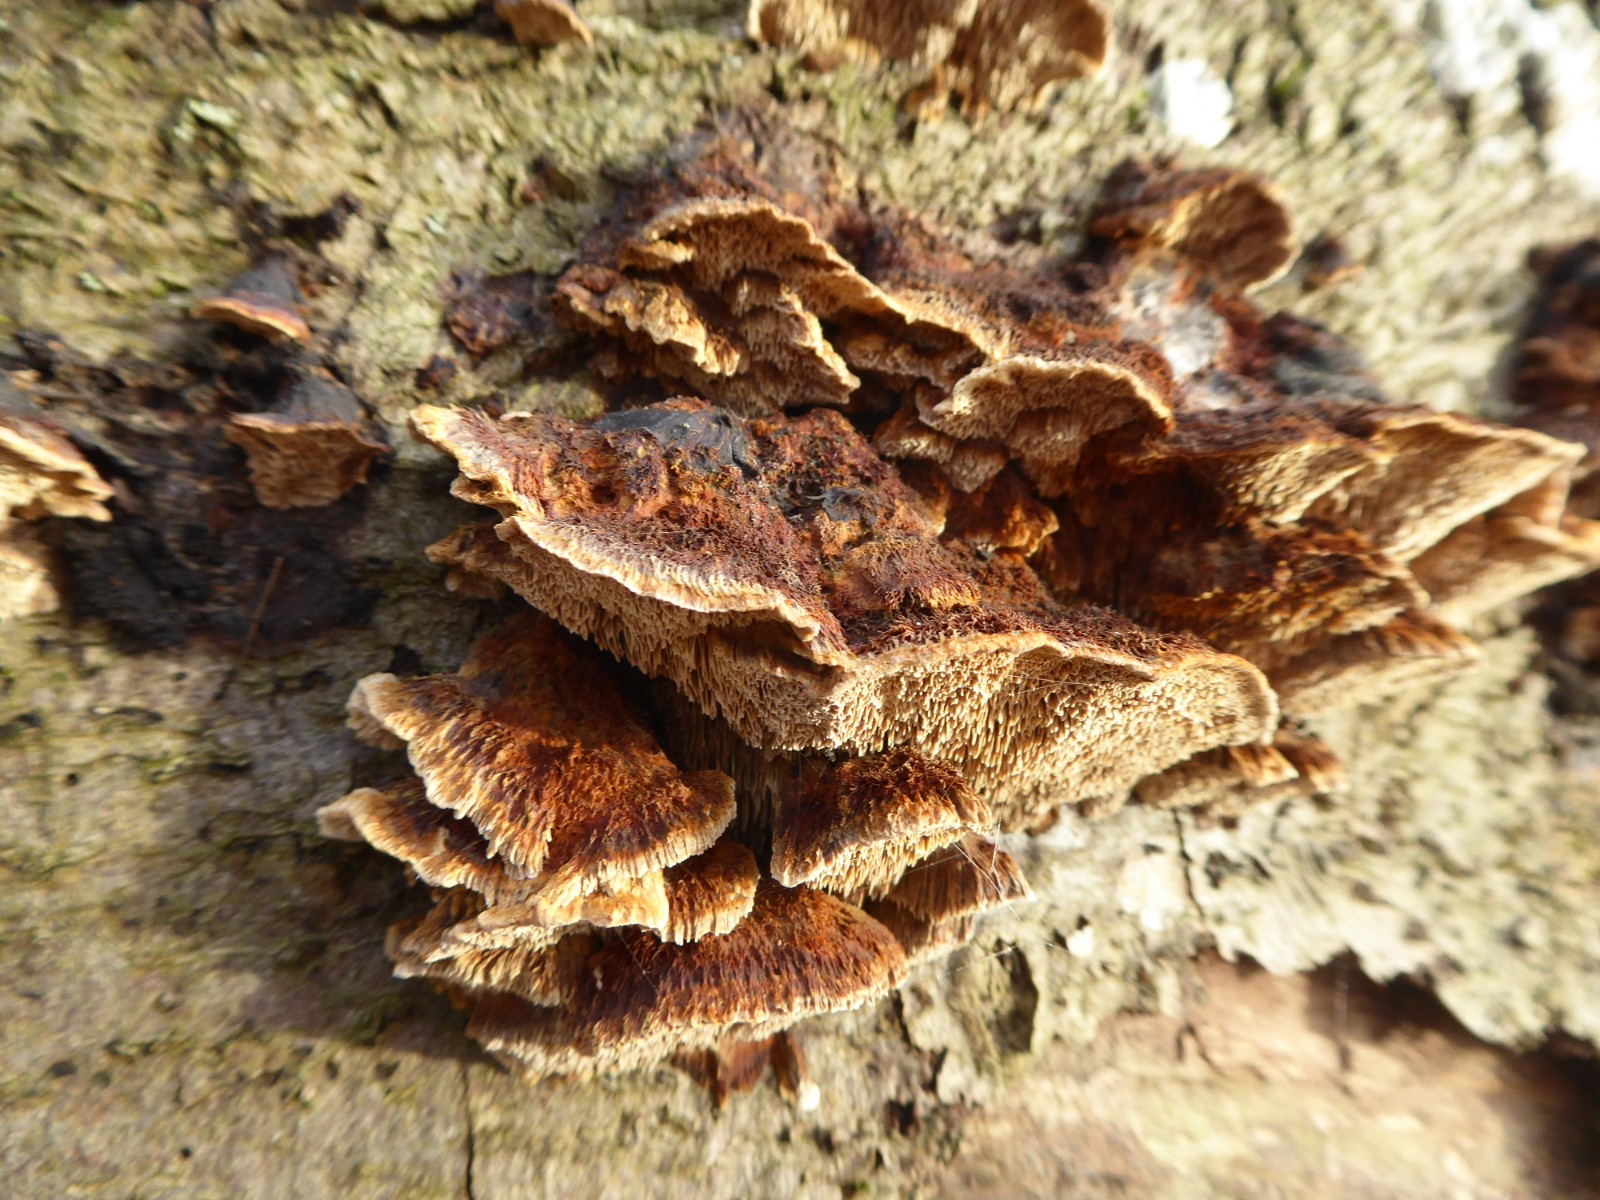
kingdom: Fungi
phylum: Basidiomycota
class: Agaricomycetes
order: Hymenochaetales
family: Hymenochaetaceae
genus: Inonotus
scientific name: Inonotus cuticularis
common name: kroghåret spejlporesvamp
